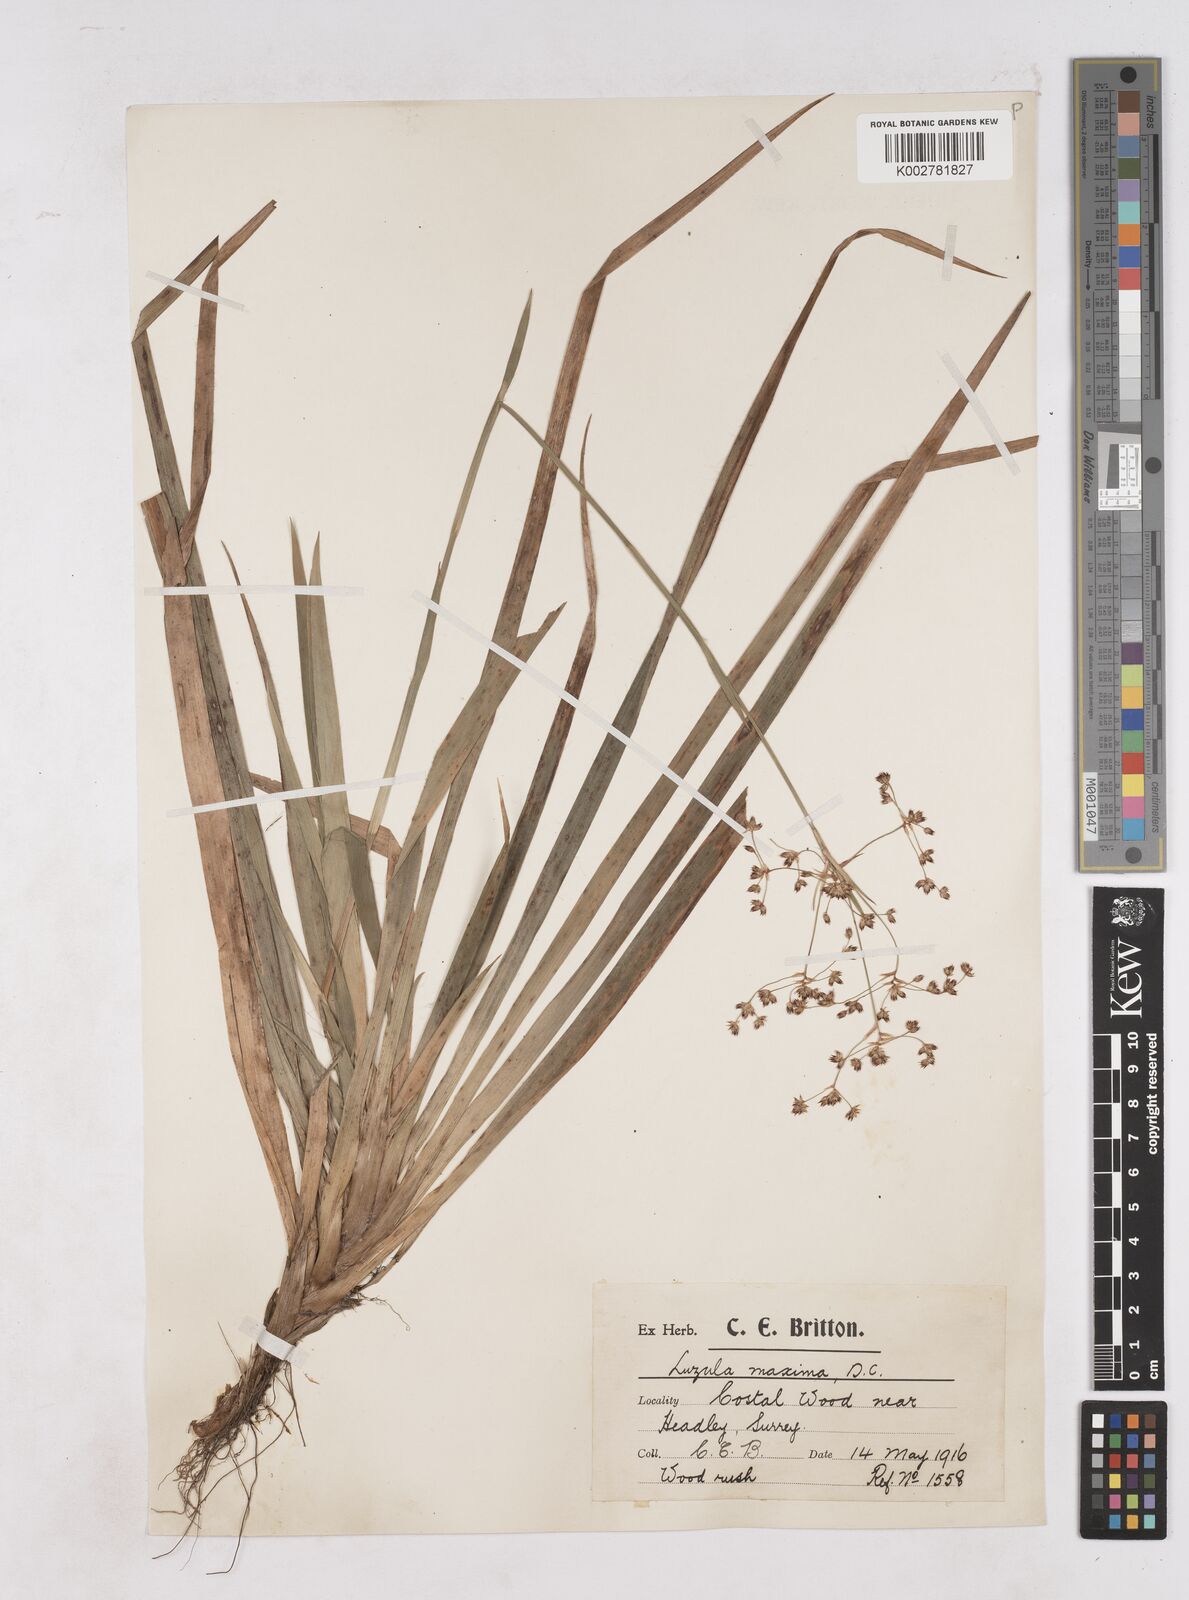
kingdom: Plantae
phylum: Tracheophyta
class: Liliopsida
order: Poales
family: Juncaceae
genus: Luzula
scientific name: Luzula sylvatica
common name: Great wood-rush
